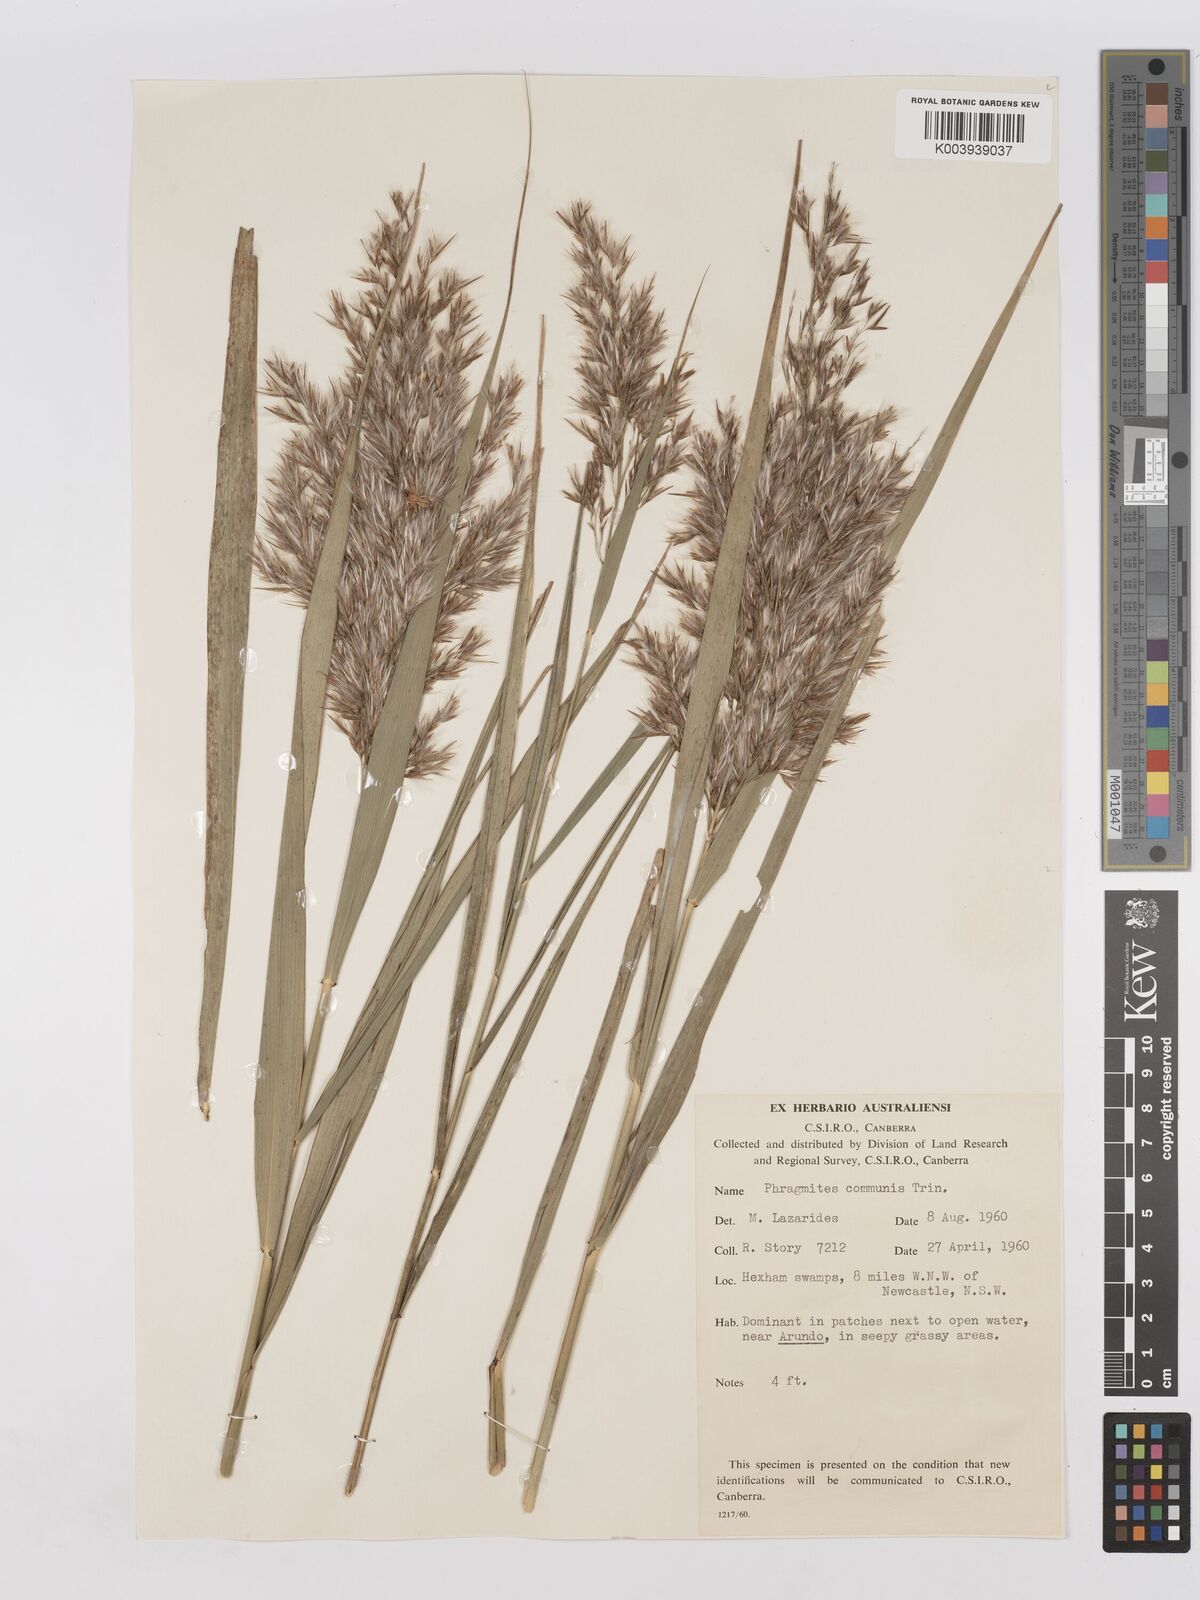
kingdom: Plantae
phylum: Tracheophyta
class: Liliopsida
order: Poales
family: Poaceae
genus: Phragmites
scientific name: Phragmites australis
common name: Common reed
